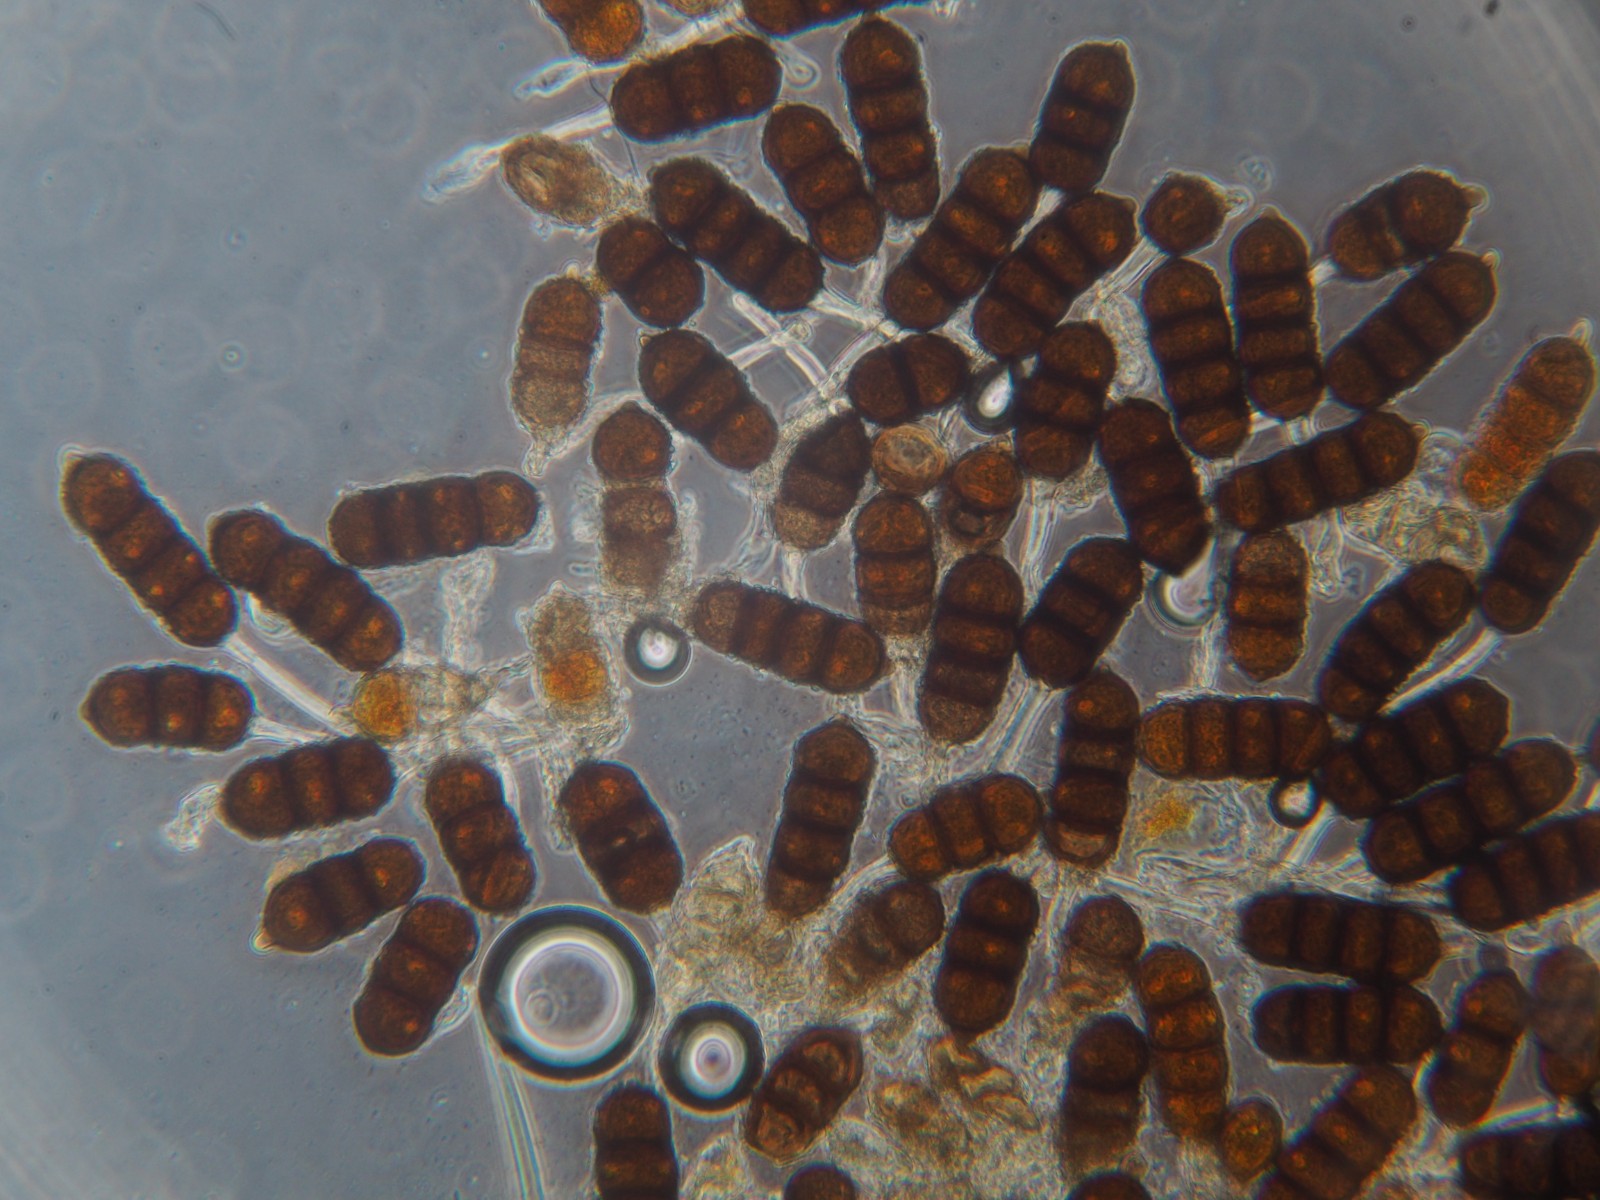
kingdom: Fungi
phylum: Basidiomycota
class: Pucciniomycetes
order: Pucciniales
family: Phragmidiaceae
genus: Phragmidium
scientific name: Phragmidium violaceum
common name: violet flercellerust
